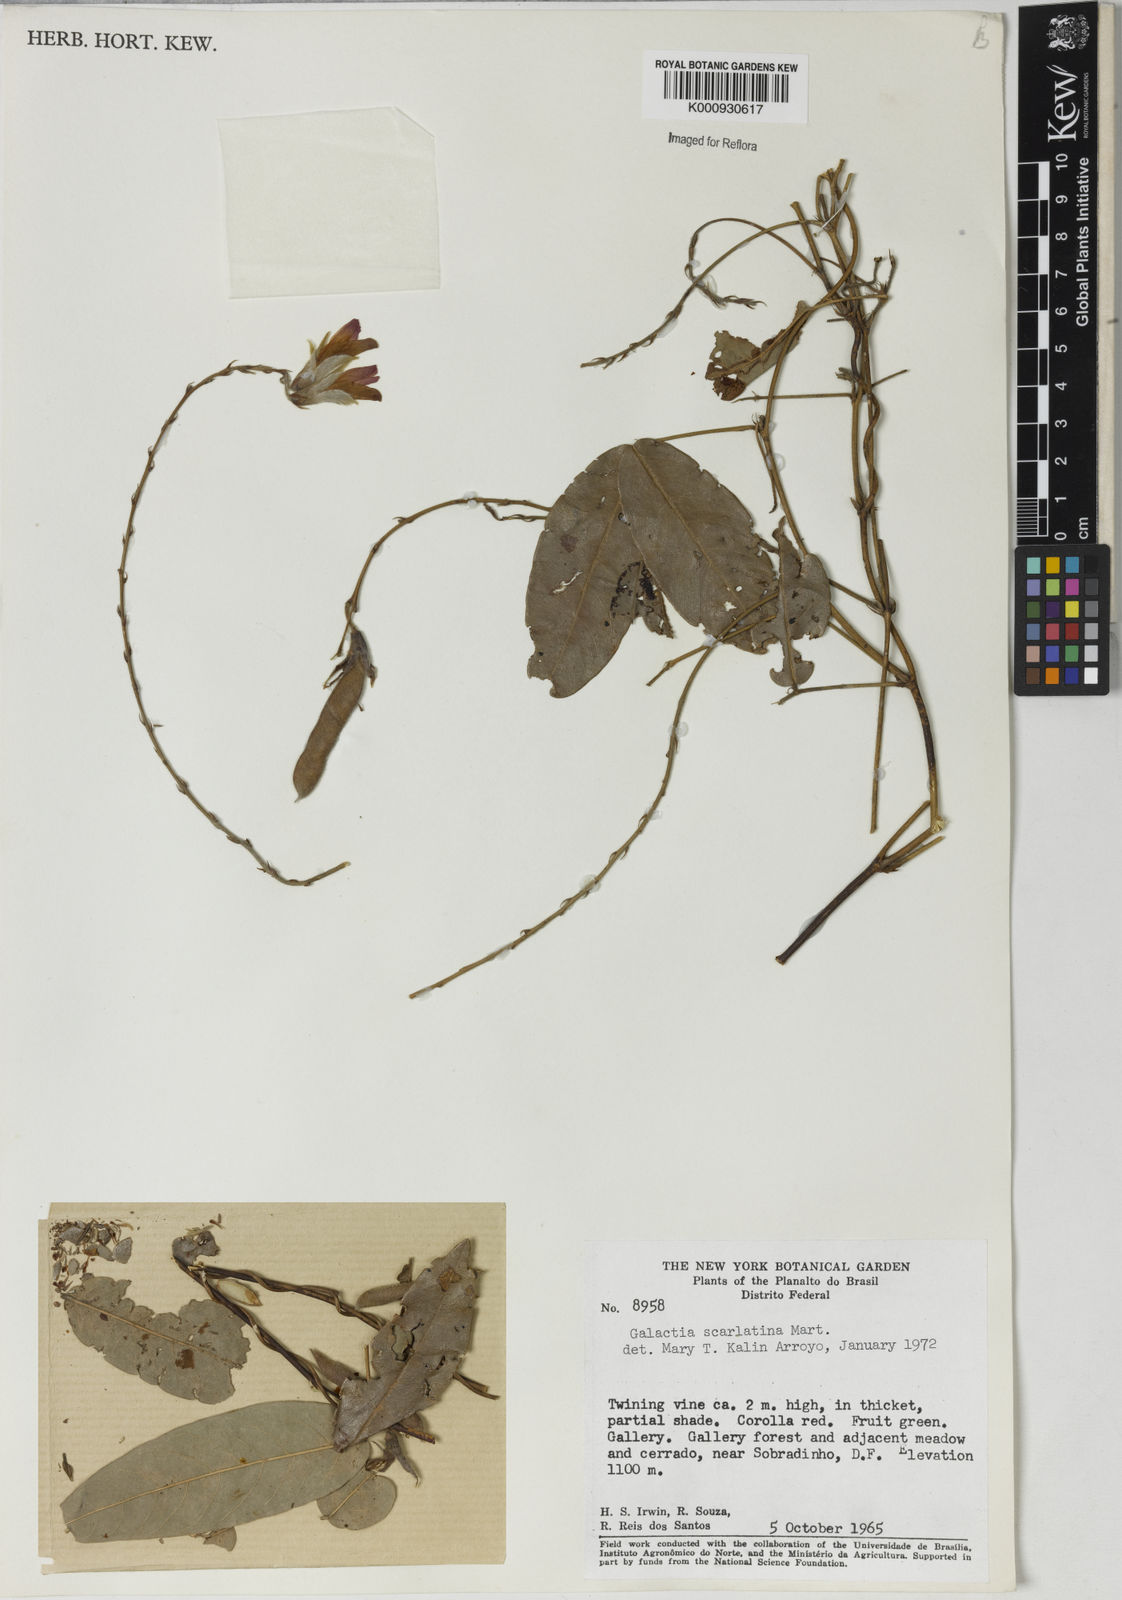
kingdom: Plantae
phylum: Tracheophyta
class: Magnoliopsida
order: Fabales
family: Fabaceae
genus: Betencourtia
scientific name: Betencourtia scarlatina
